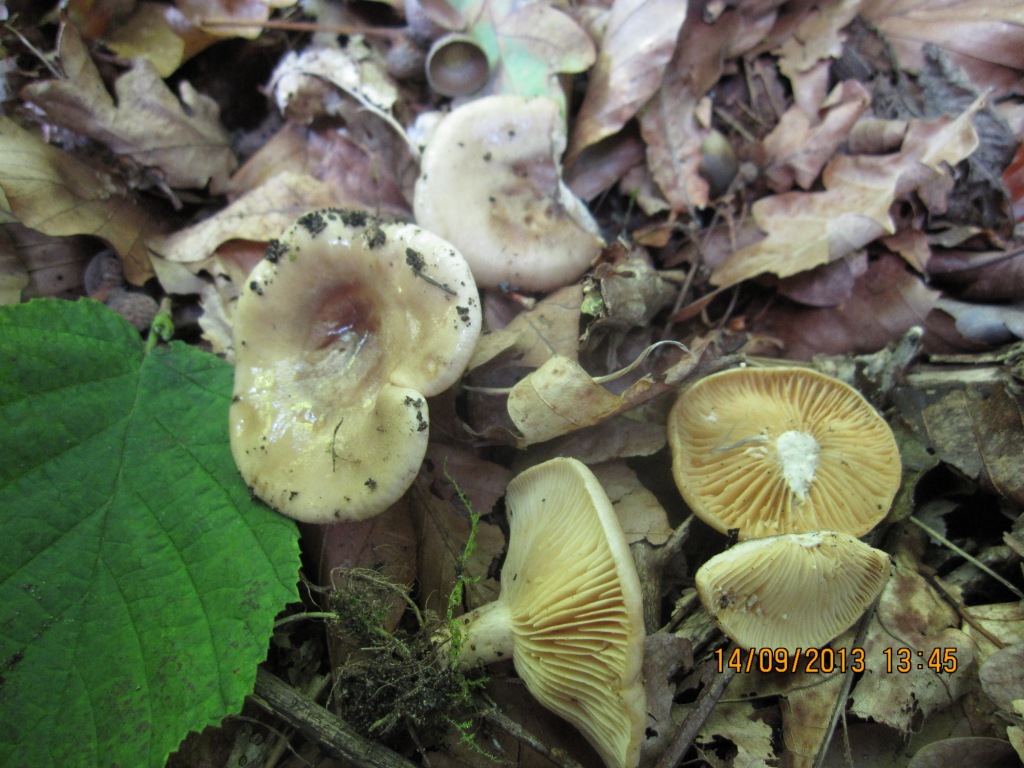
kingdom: Fungi
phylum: Basidiomycota
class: Agaricomycetes
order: Russulales
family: Russulaceae
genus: Lactarius
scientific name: Lactarius pyrogalus
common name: hassel-mælkehat
